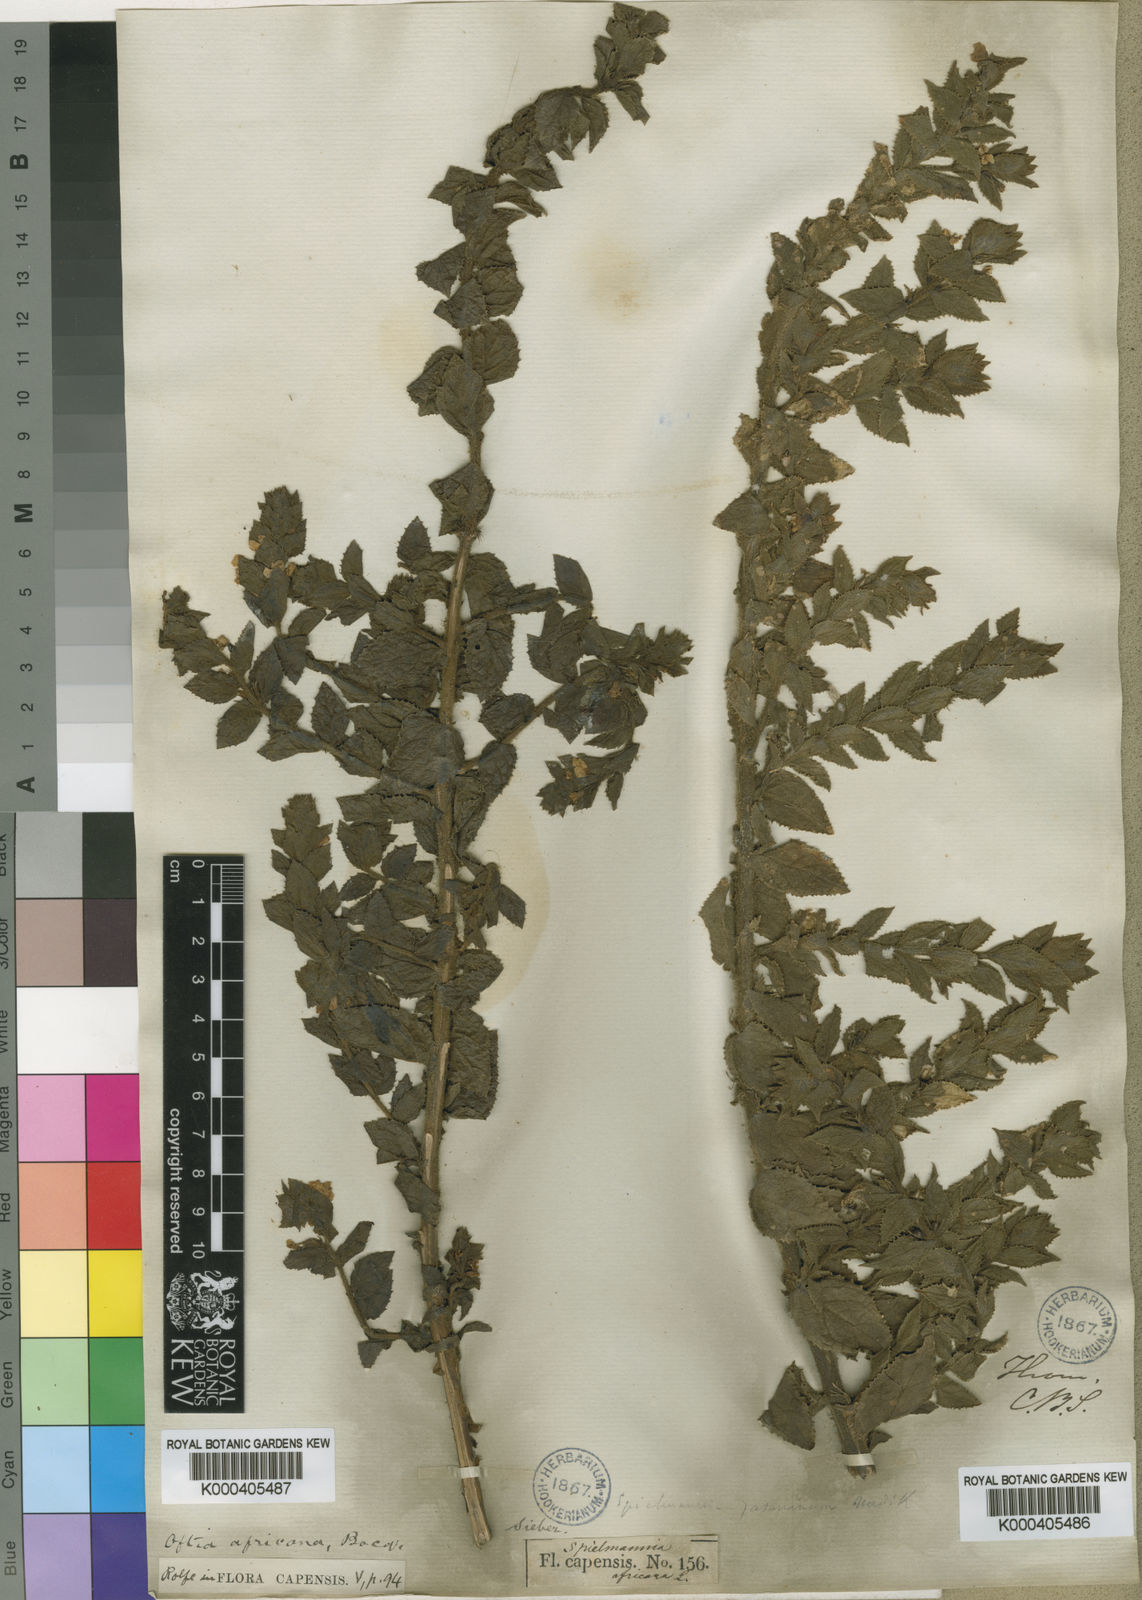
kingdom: Plantae
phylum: Tracheophyta
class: Magnoliopsida
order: Lamiales
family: Scrophulariaceae
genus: Oftia
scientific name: Oftia
